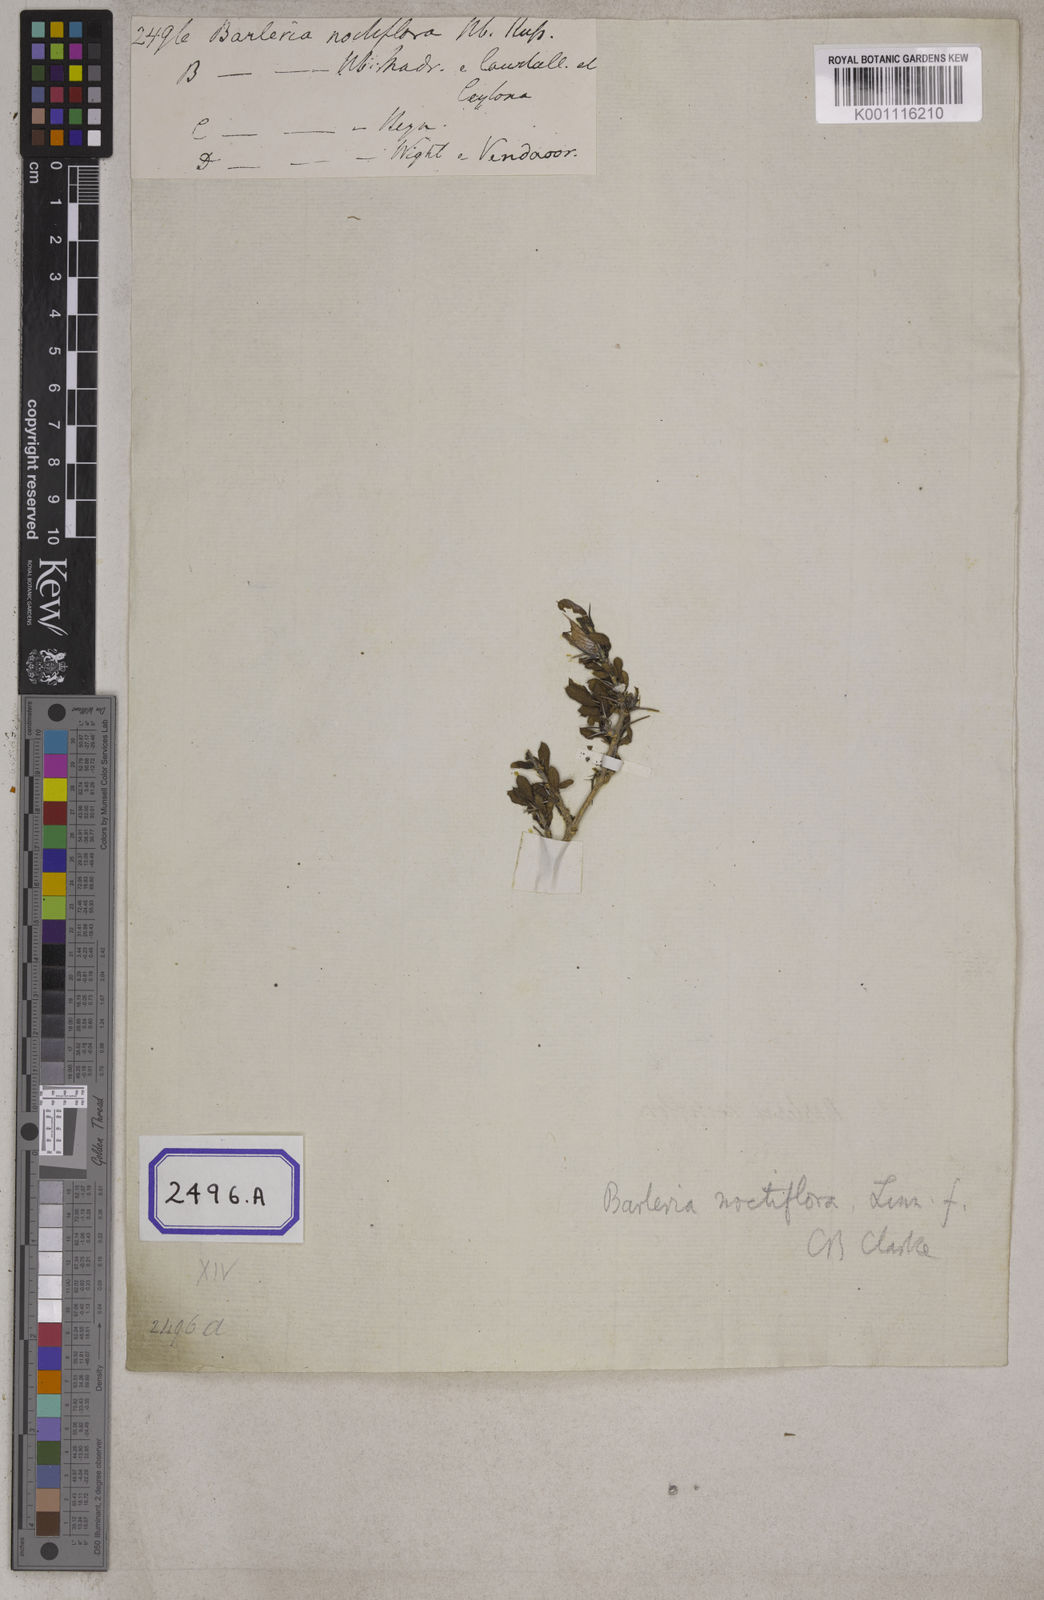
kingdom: Plantae
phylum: Tracheophyta
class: Magnoliopsida
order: Lamiales
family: Acanthaceae
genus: Barleria
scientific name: Barleria noctiflora
